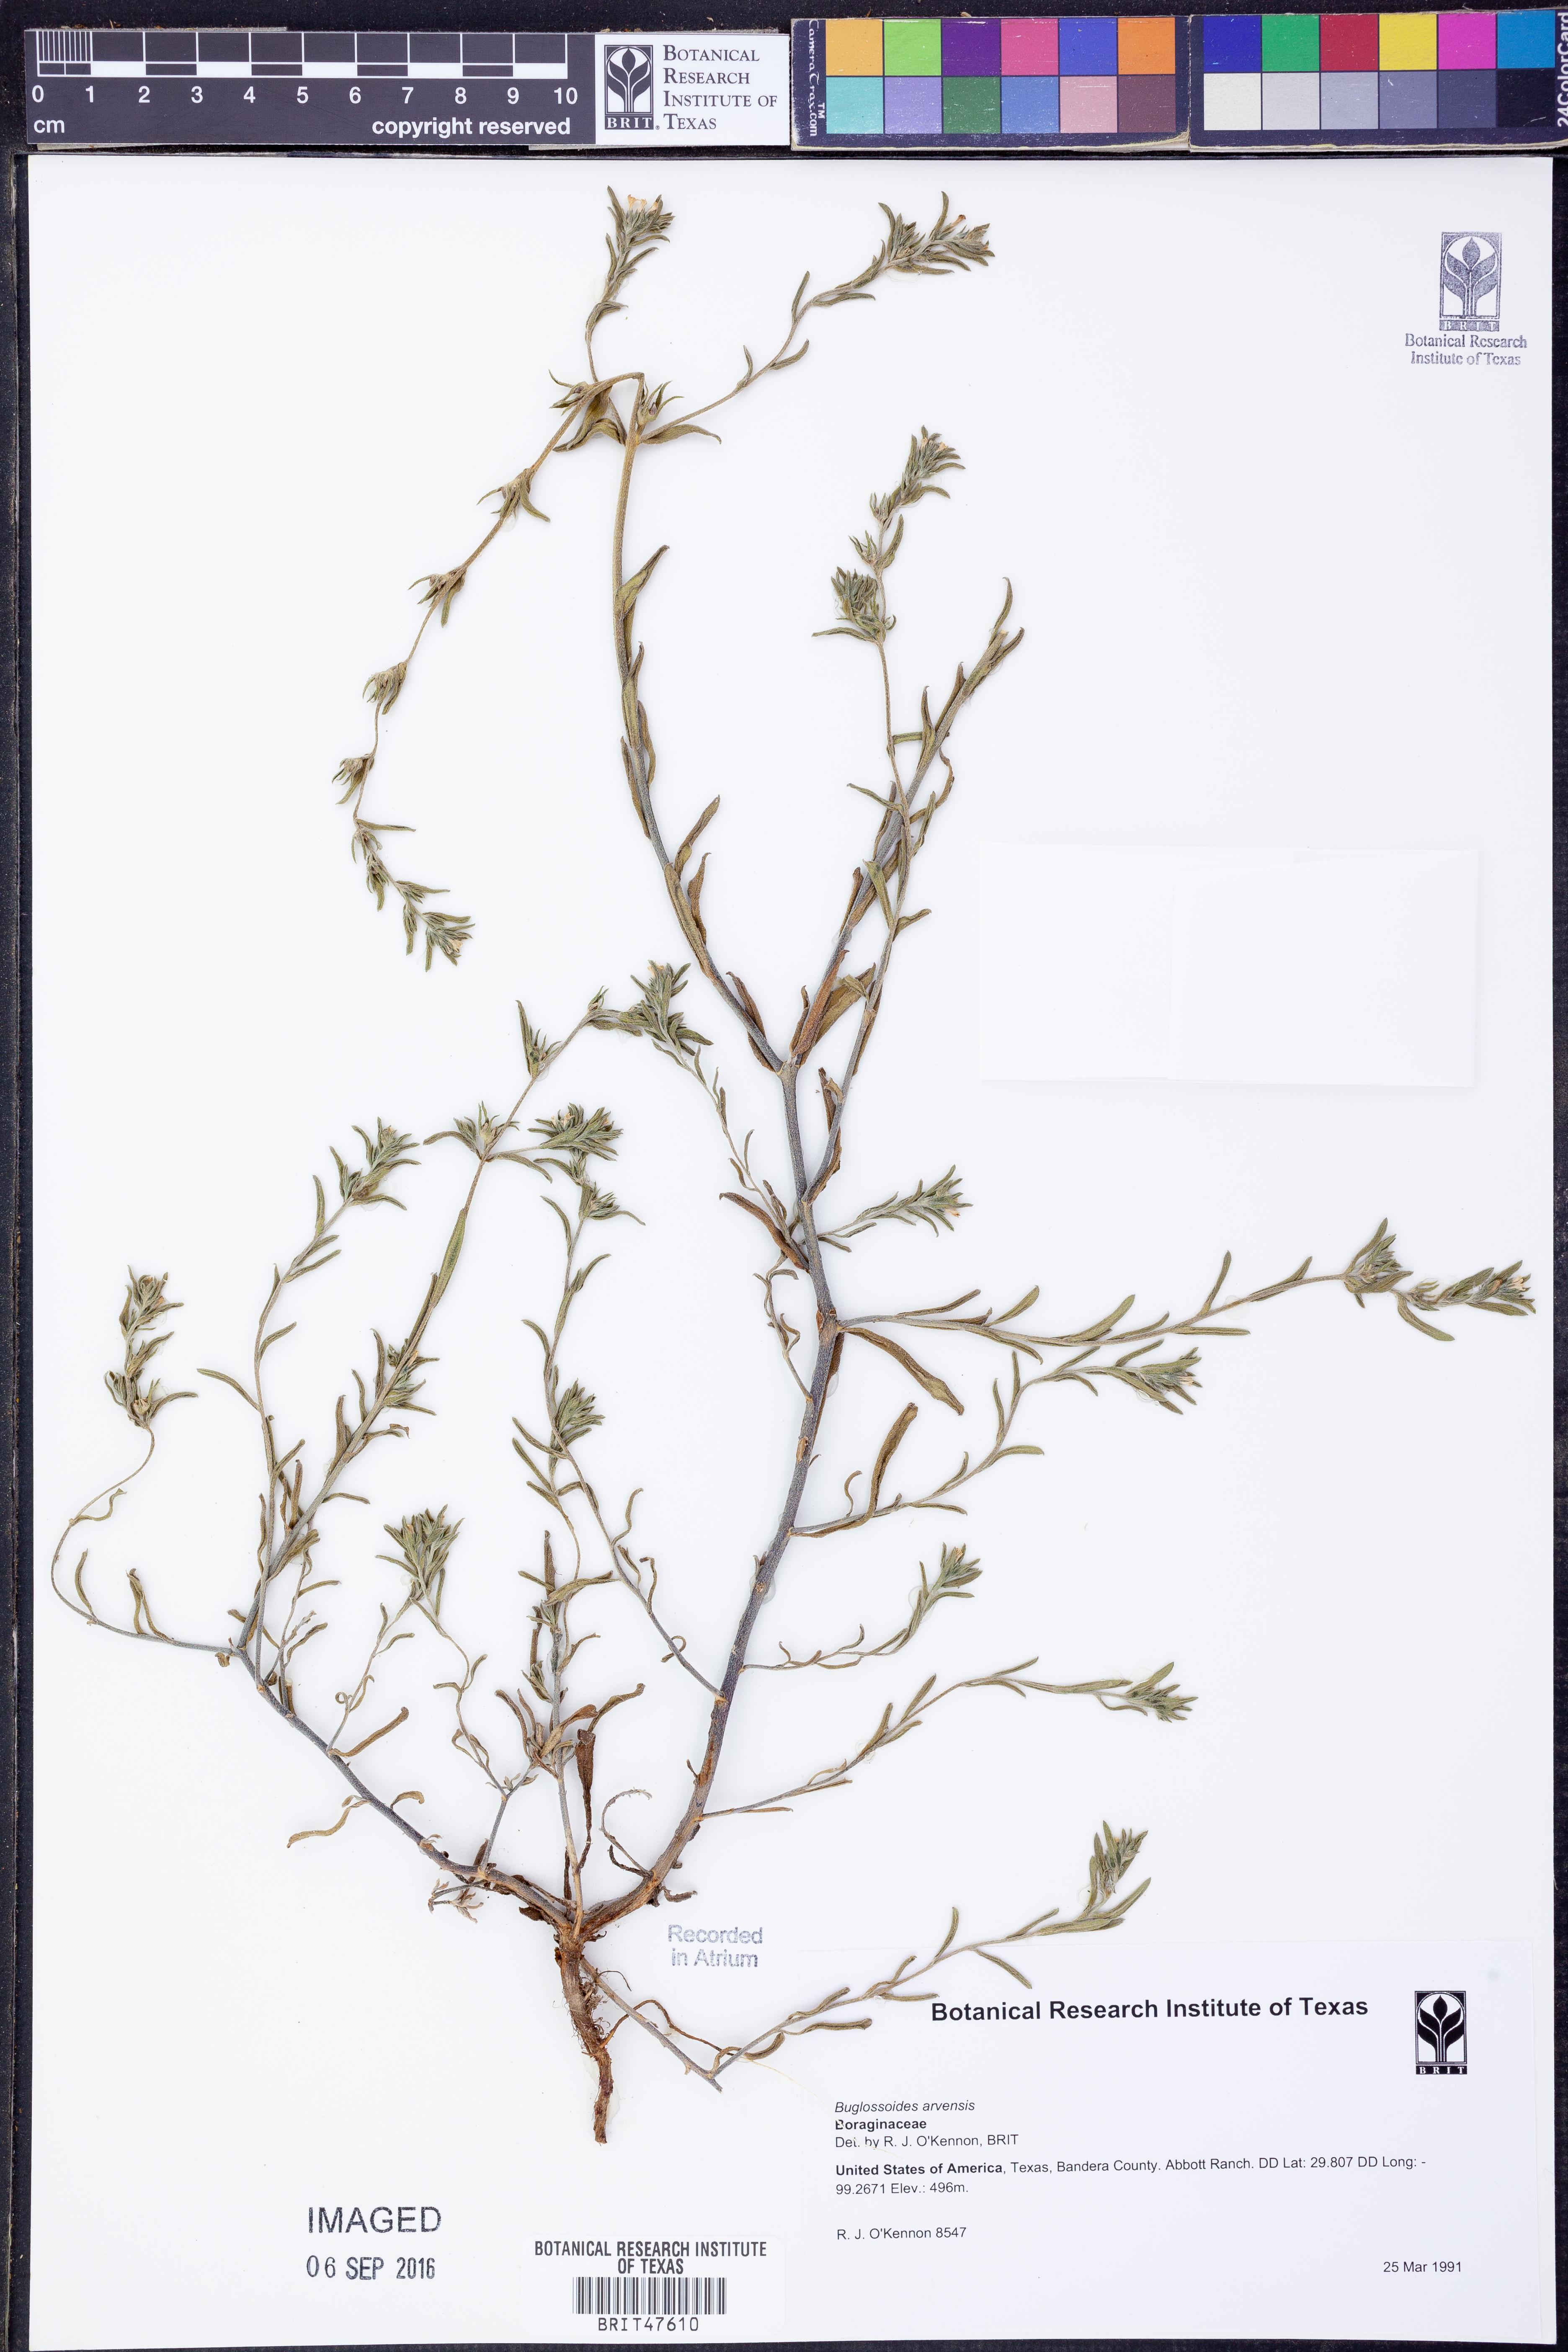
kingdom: Plantae
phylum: Tracheophyta
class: Magnoliopsida
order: Boraginales
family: Boraginaceae
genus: Buglossoides
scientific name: Buglossoides arvensis
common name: Corn gromwell
